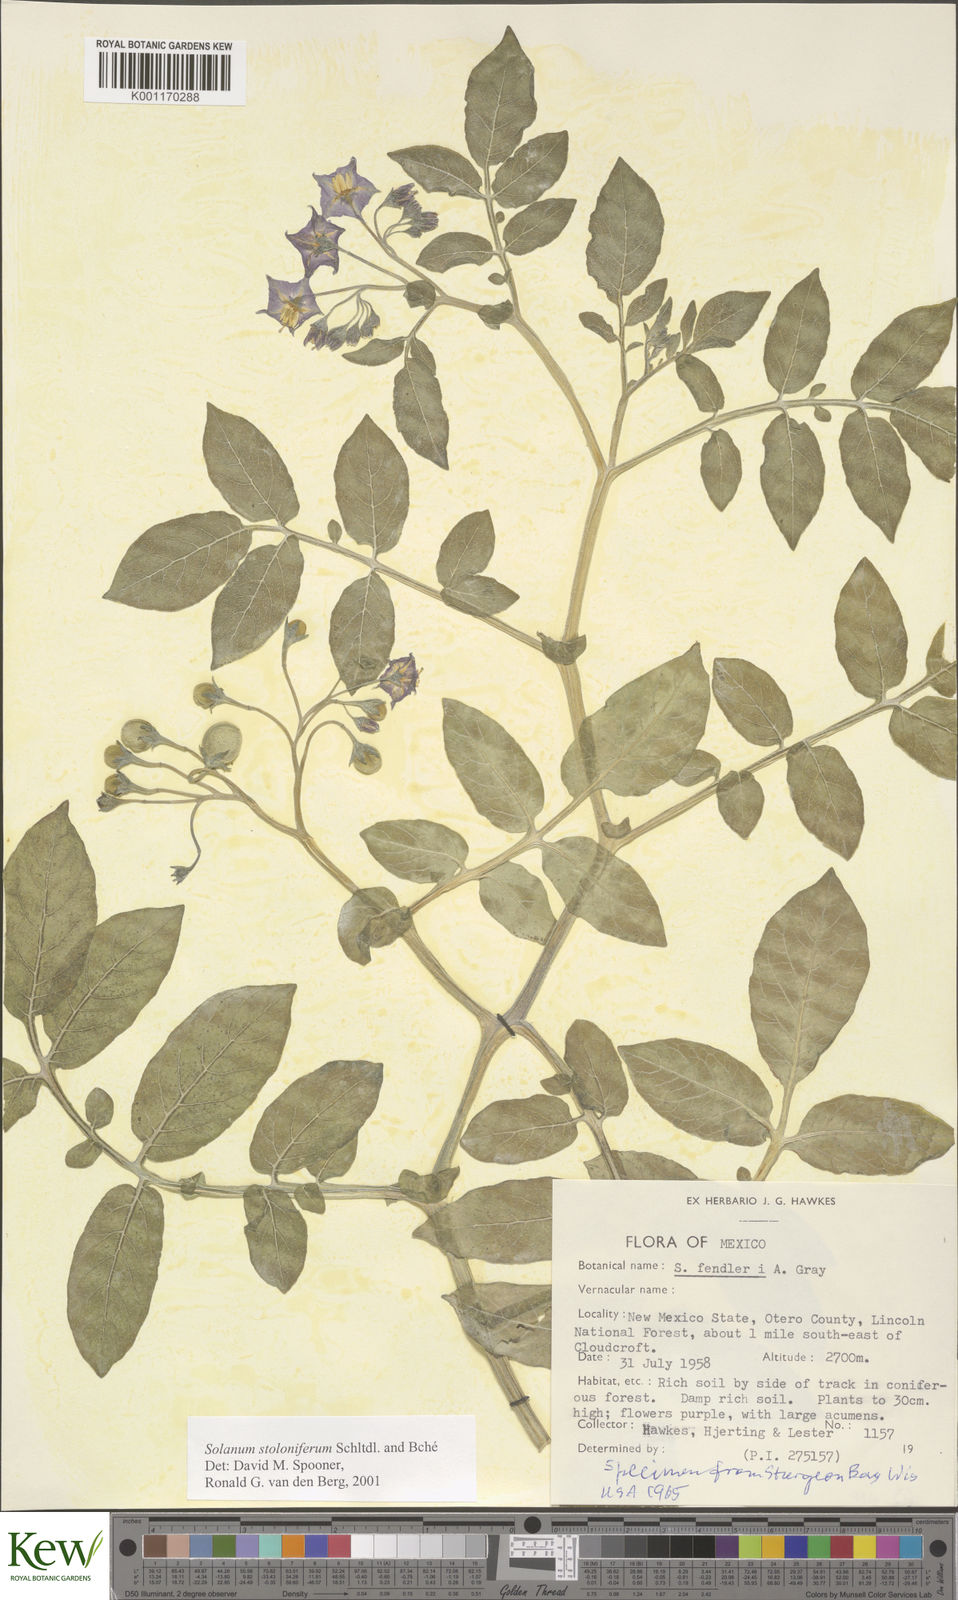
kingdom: Plantae
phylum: Tracheophyta
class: Magnoliopsida
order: Solanales
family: Solanaceae
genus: Solanum
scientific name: Solanum stoloniferum
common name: Fendler's nighshade
